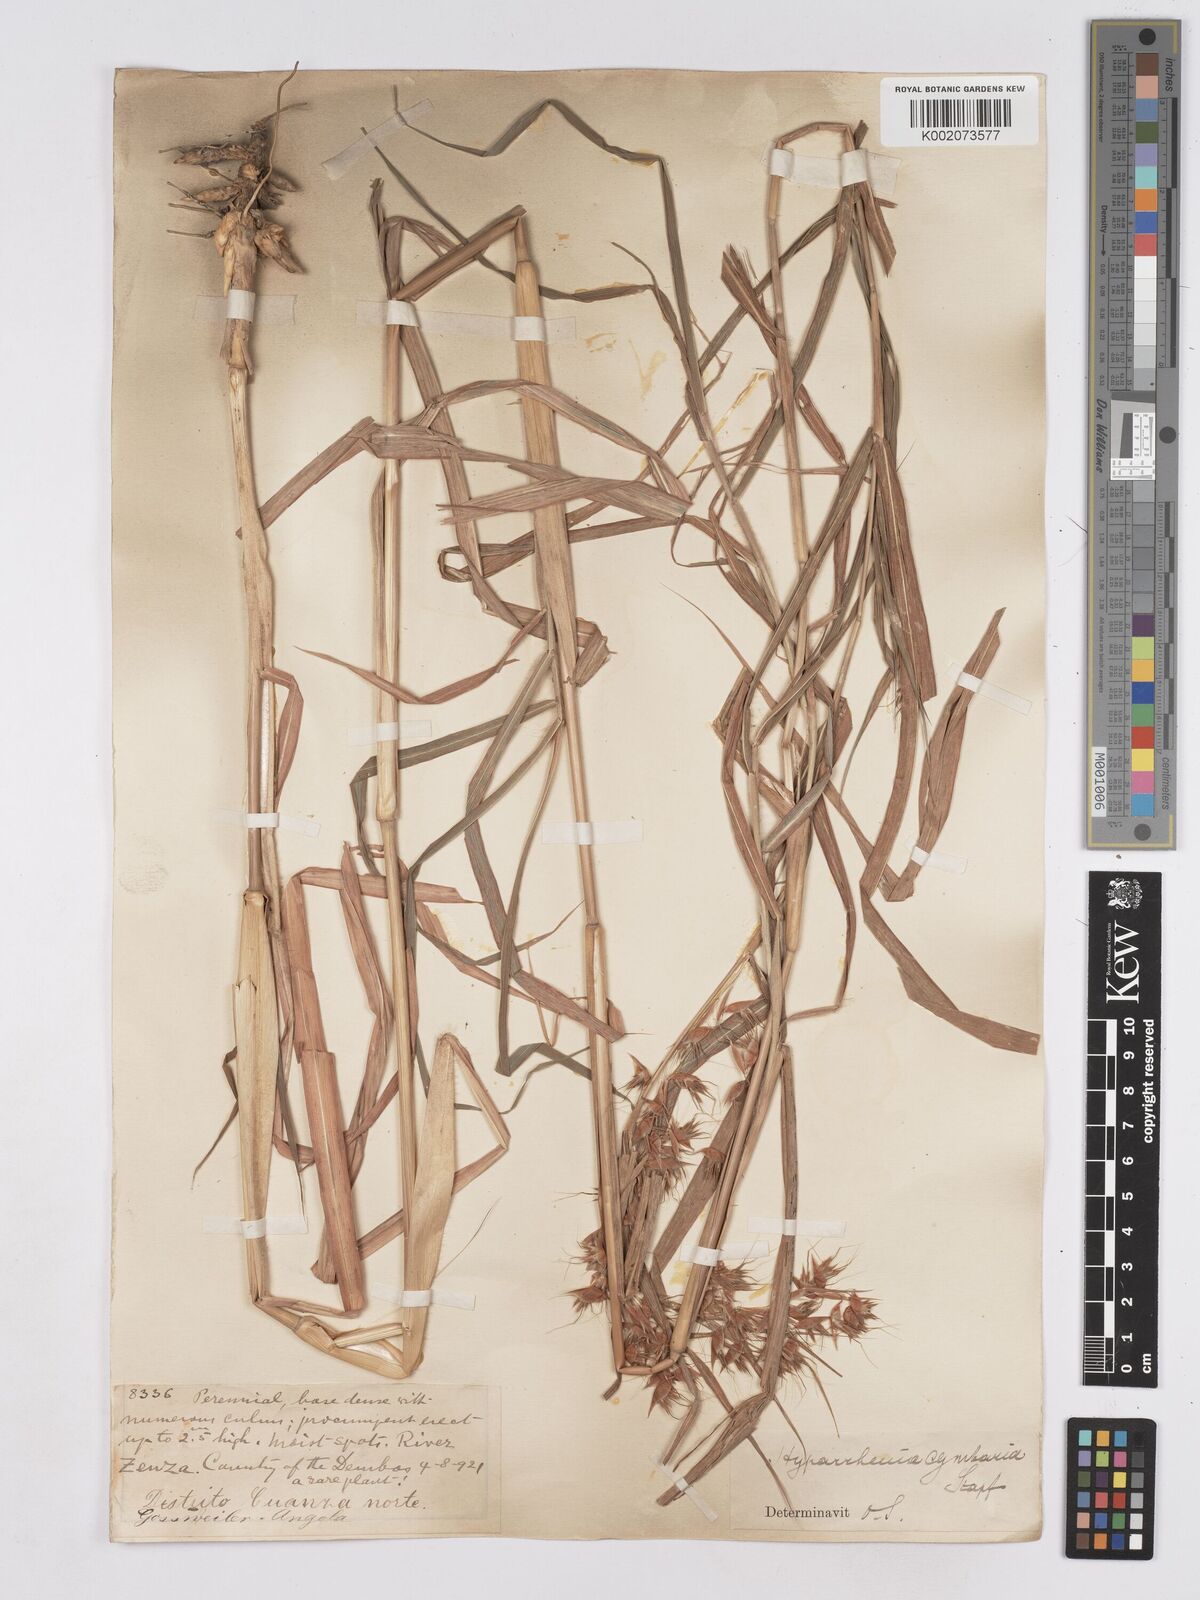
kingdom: Plantae
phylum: Tracheophyta
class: Liliopsida
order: Poales
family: Poaceae
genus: Hyparrhenia
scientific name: Hyparrhenia cymbaria
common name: Boat thatching grass
